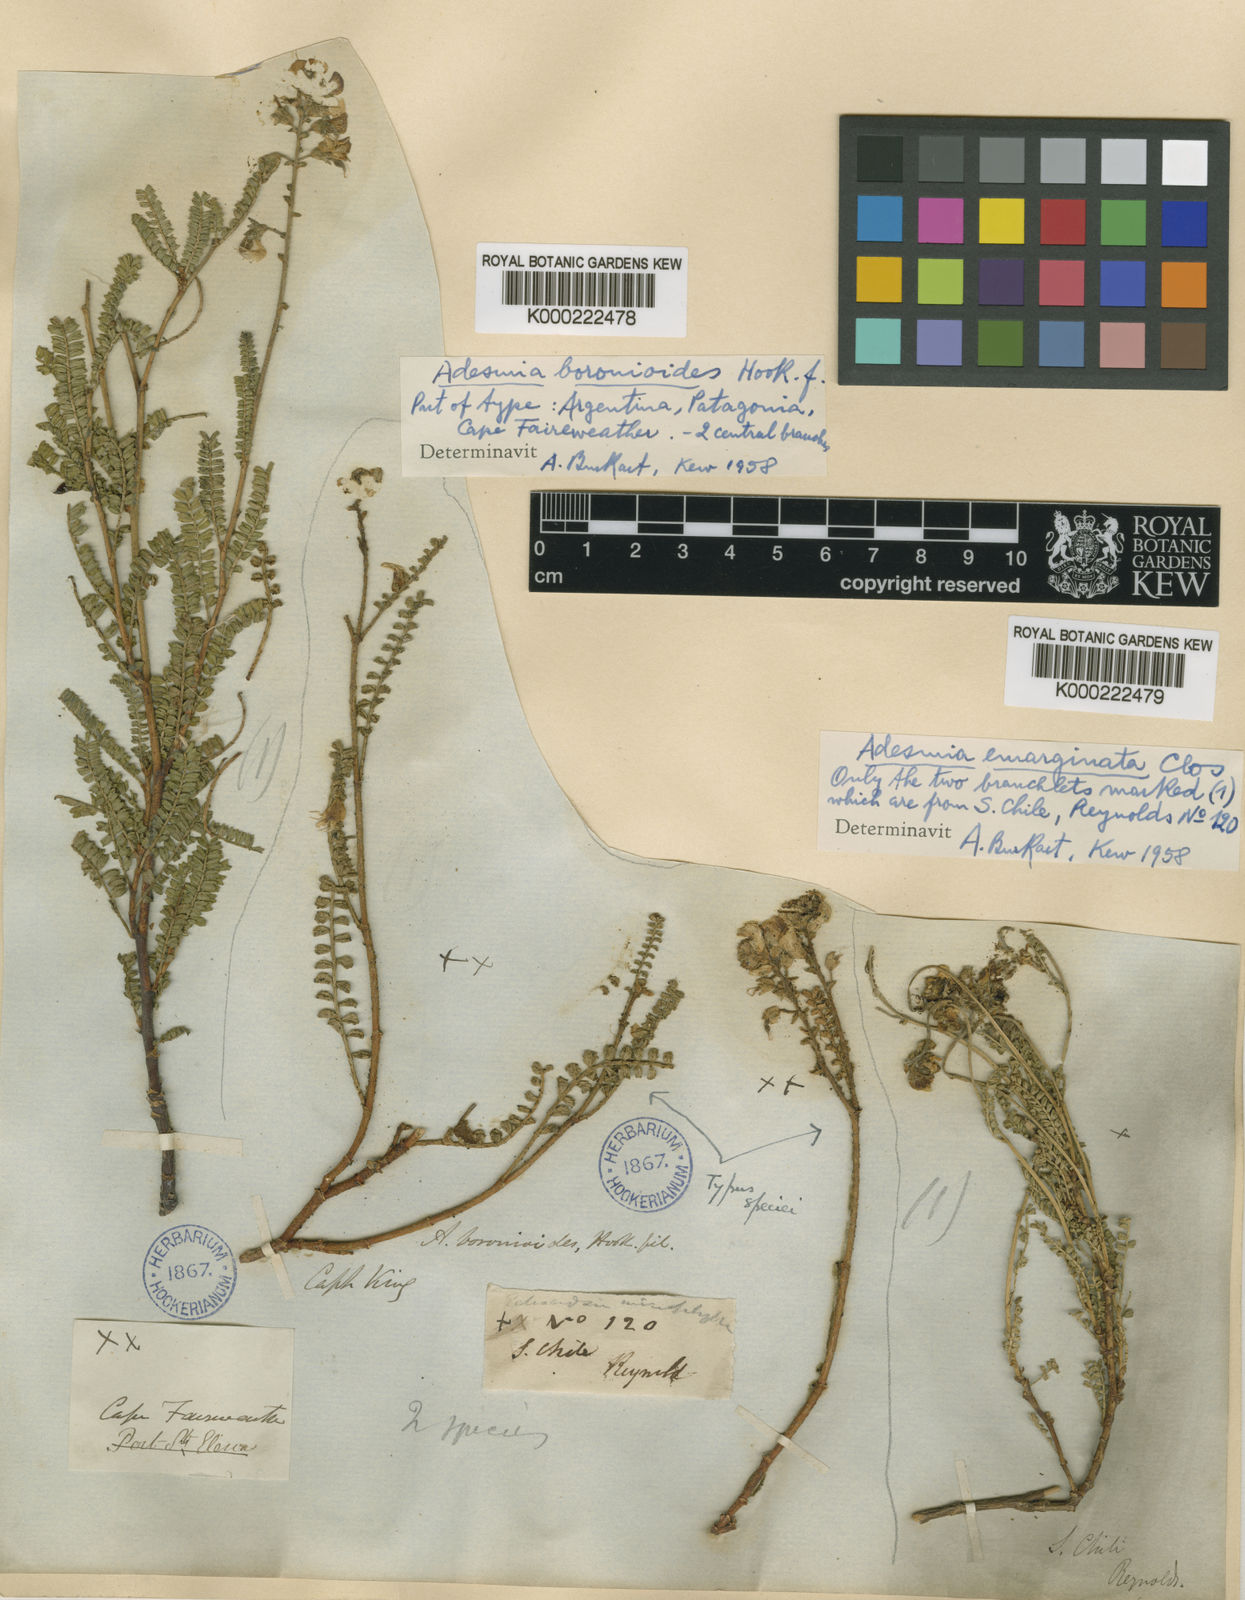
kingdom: Plantae
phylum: Tracheophyta
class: Magnoliopsida
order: Fabales
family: Fabaceae
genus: Adesmia
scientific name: Adesmia boronioides
